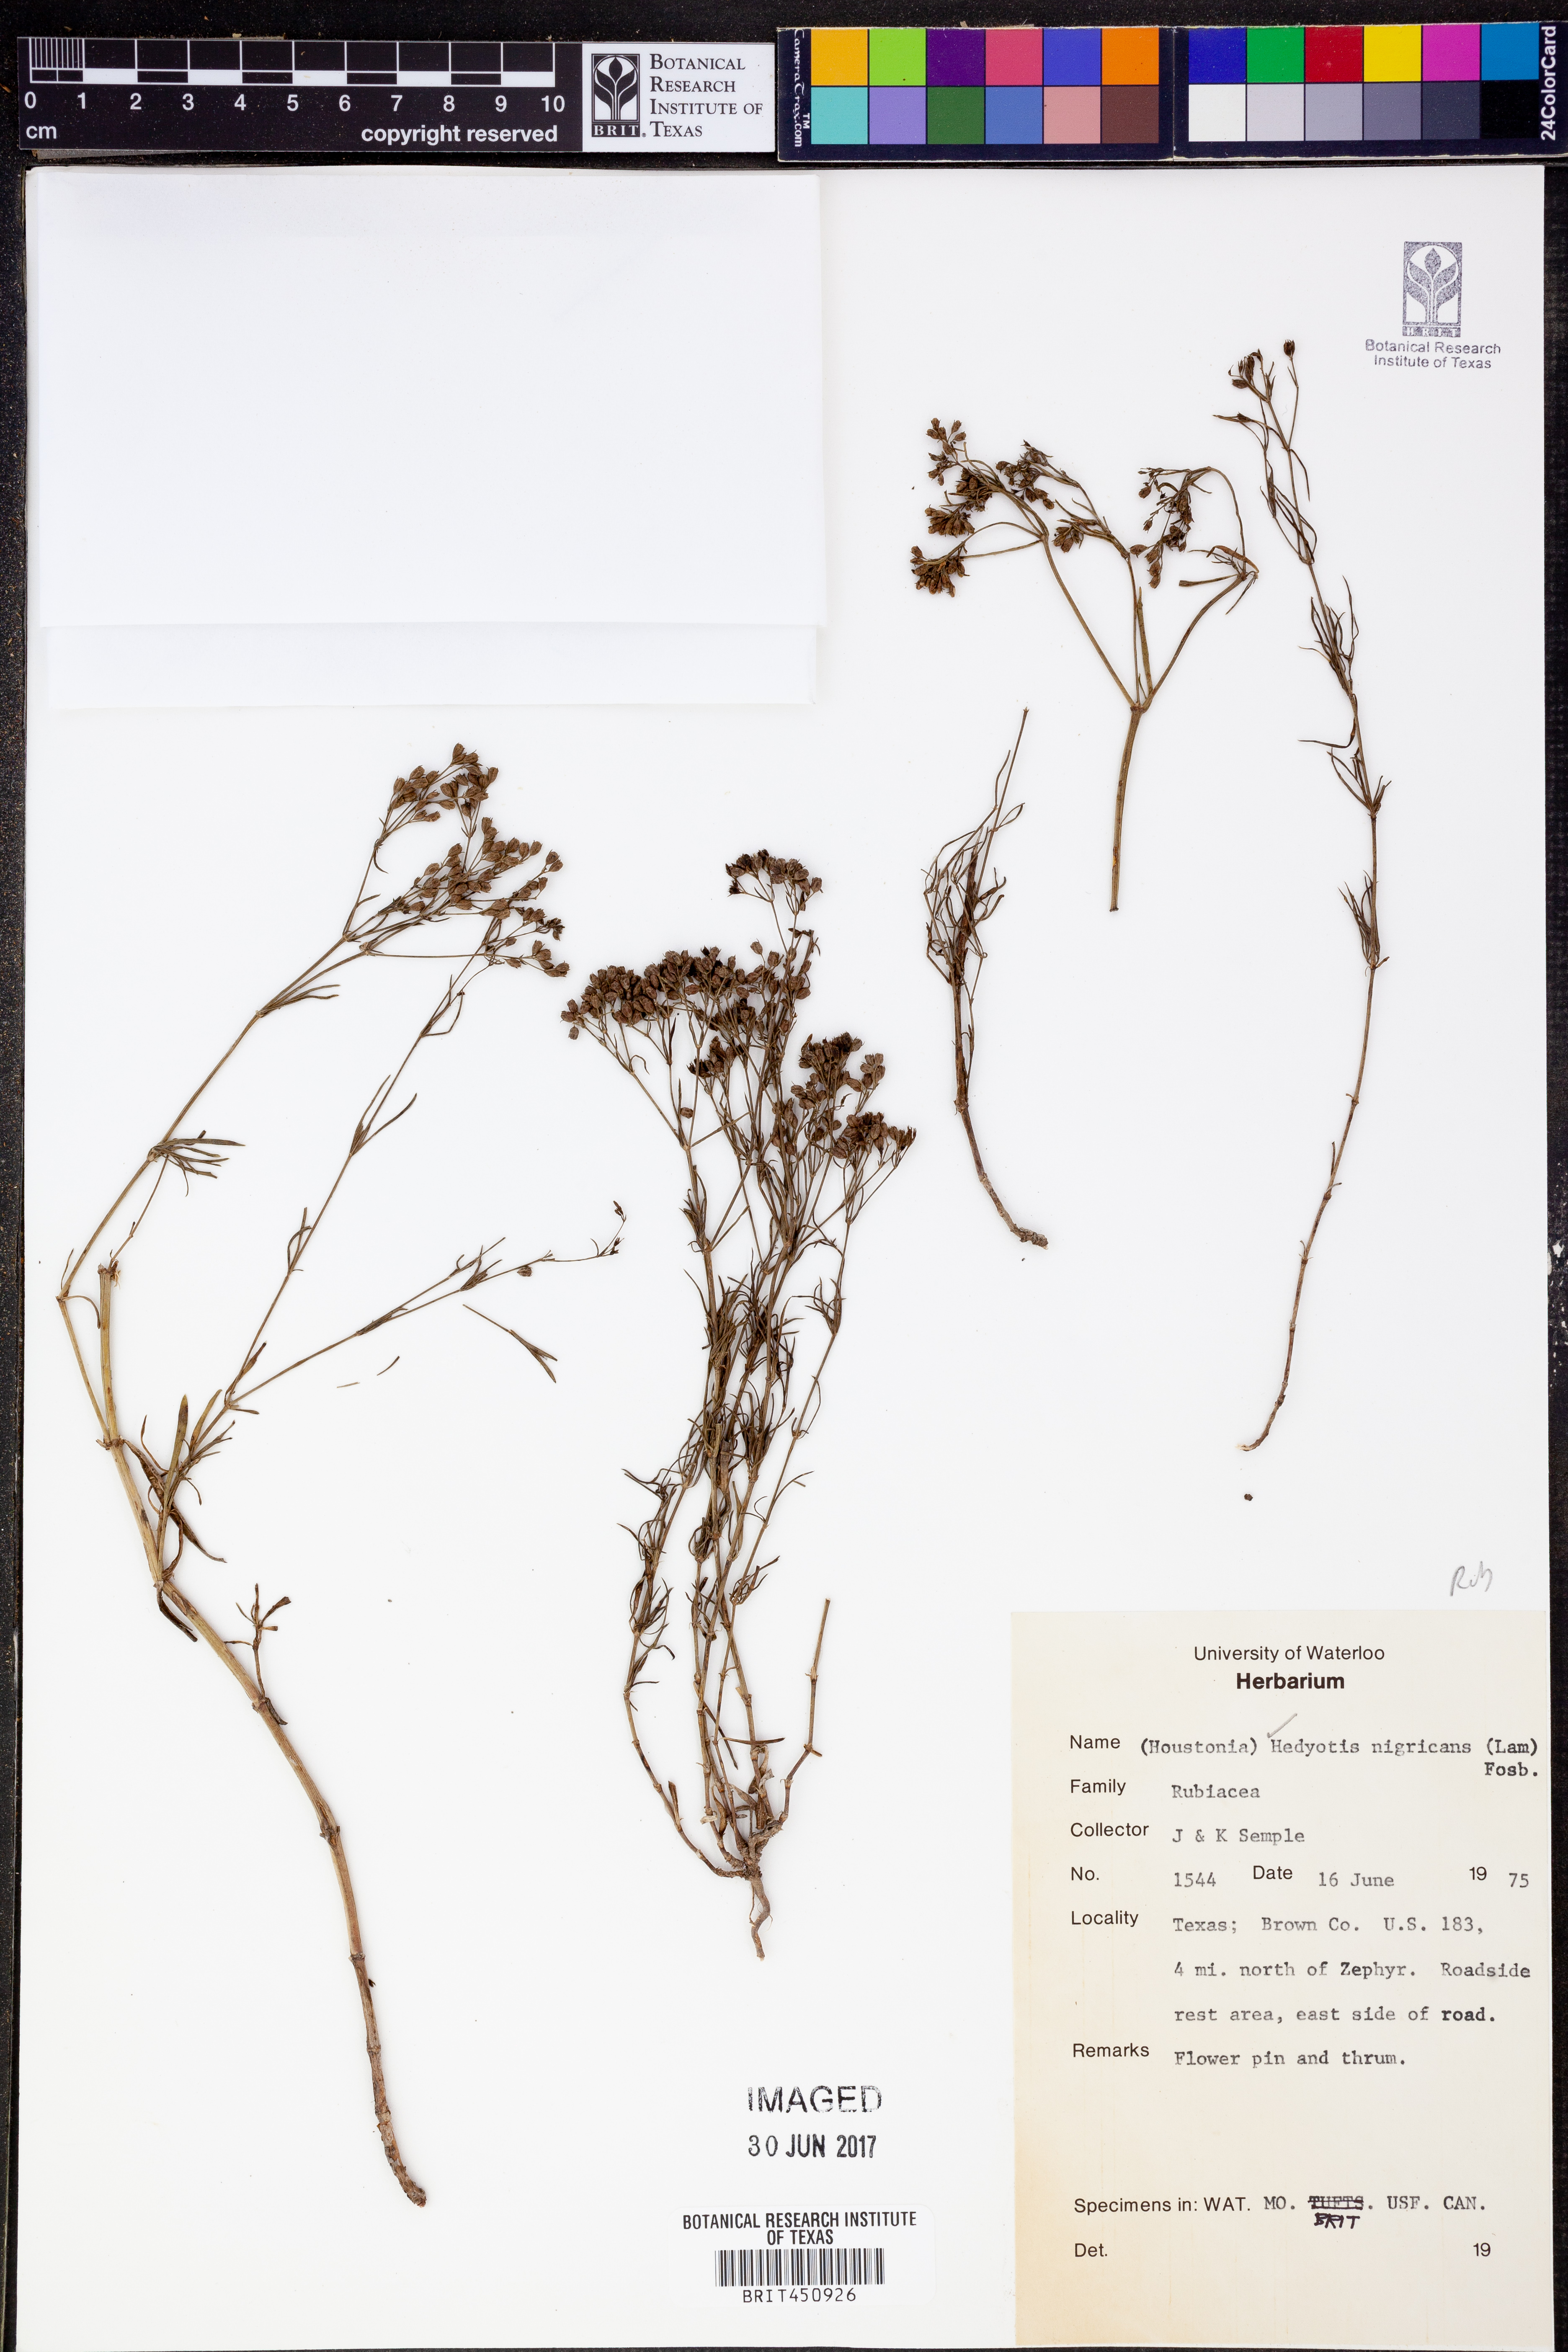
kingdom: Plantae
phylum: Tracheophyta
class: Magnoliopsida
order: Gentianales
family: Rubiaceae
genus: Stenaria
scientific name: Stenaria nigricans
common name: Diamondflowers
